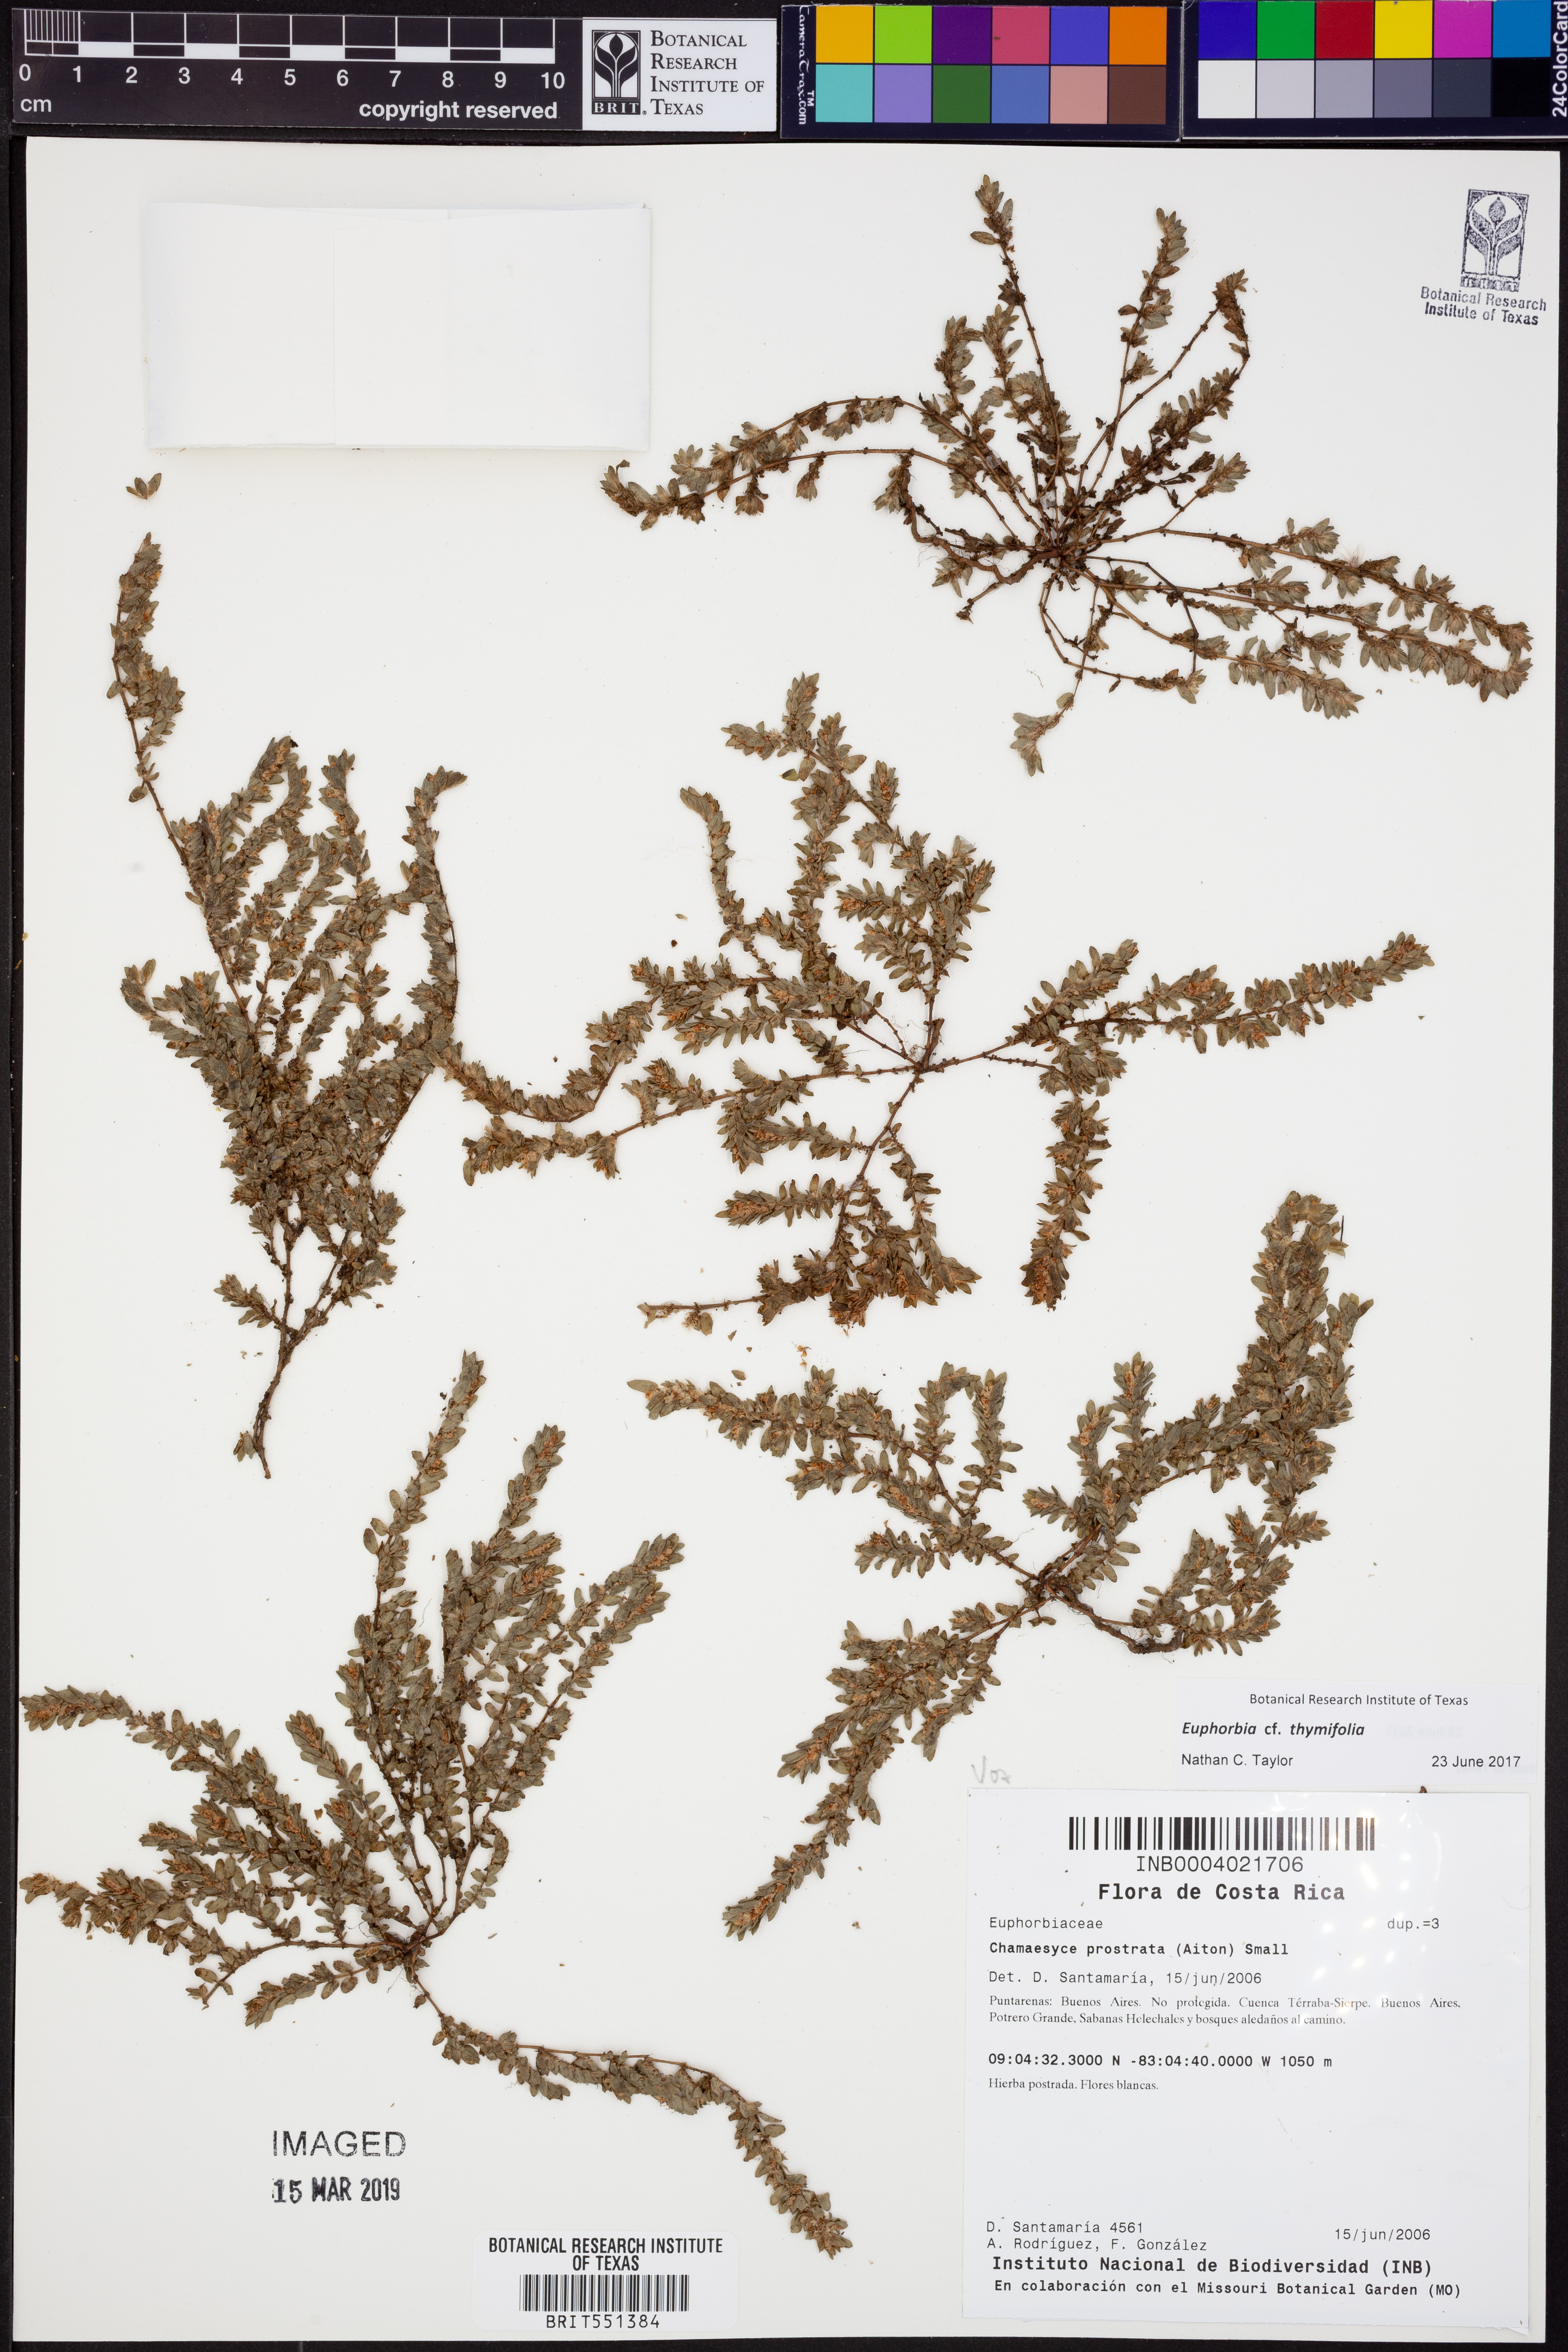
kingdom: Plantae
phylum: Tracheophyta
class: Magnoliopsida
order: Malpighiales
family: Euphorbiaceae
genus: Euphorbia
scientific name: Euphorbia thymifolia
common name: Gulf sandmat
